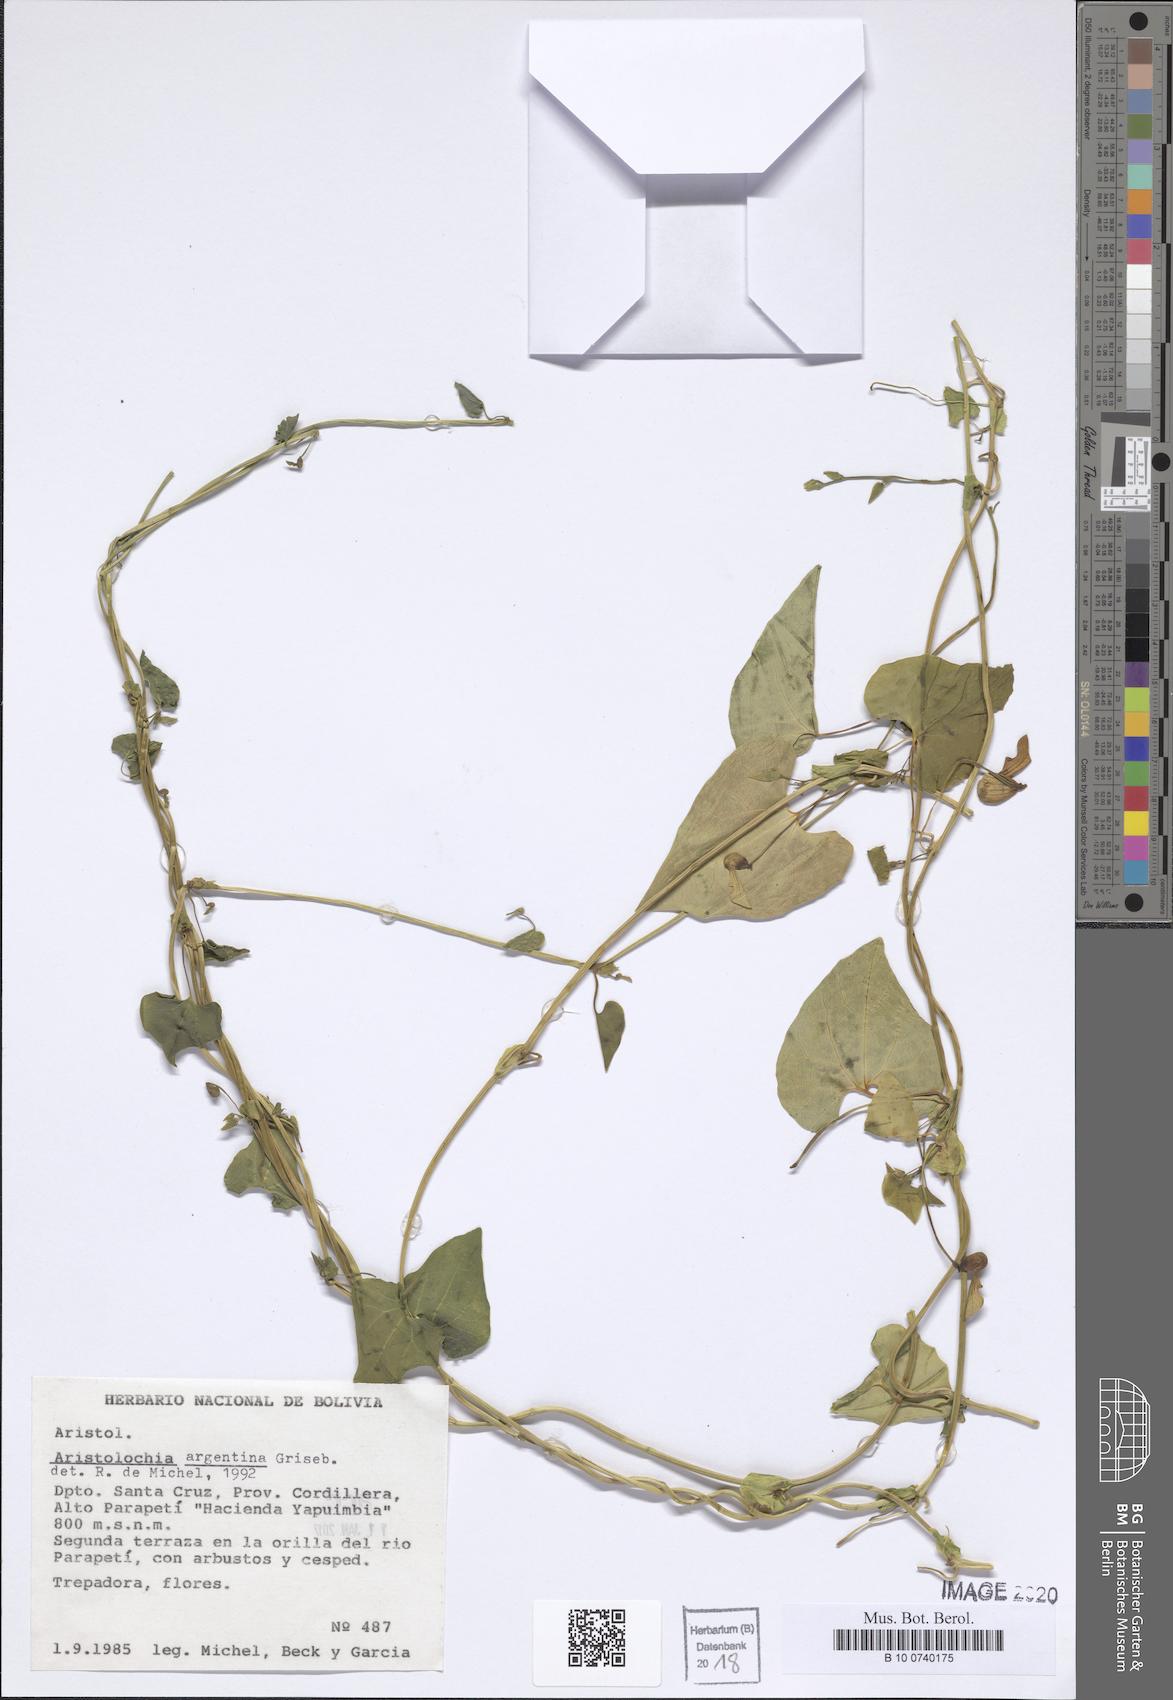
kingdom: Plantae
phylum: Tracheophyta
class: Magnoliopsida
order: Piperales
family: Aristolochiaceae
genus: Aristolochia
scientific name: Aristolochia argentina
